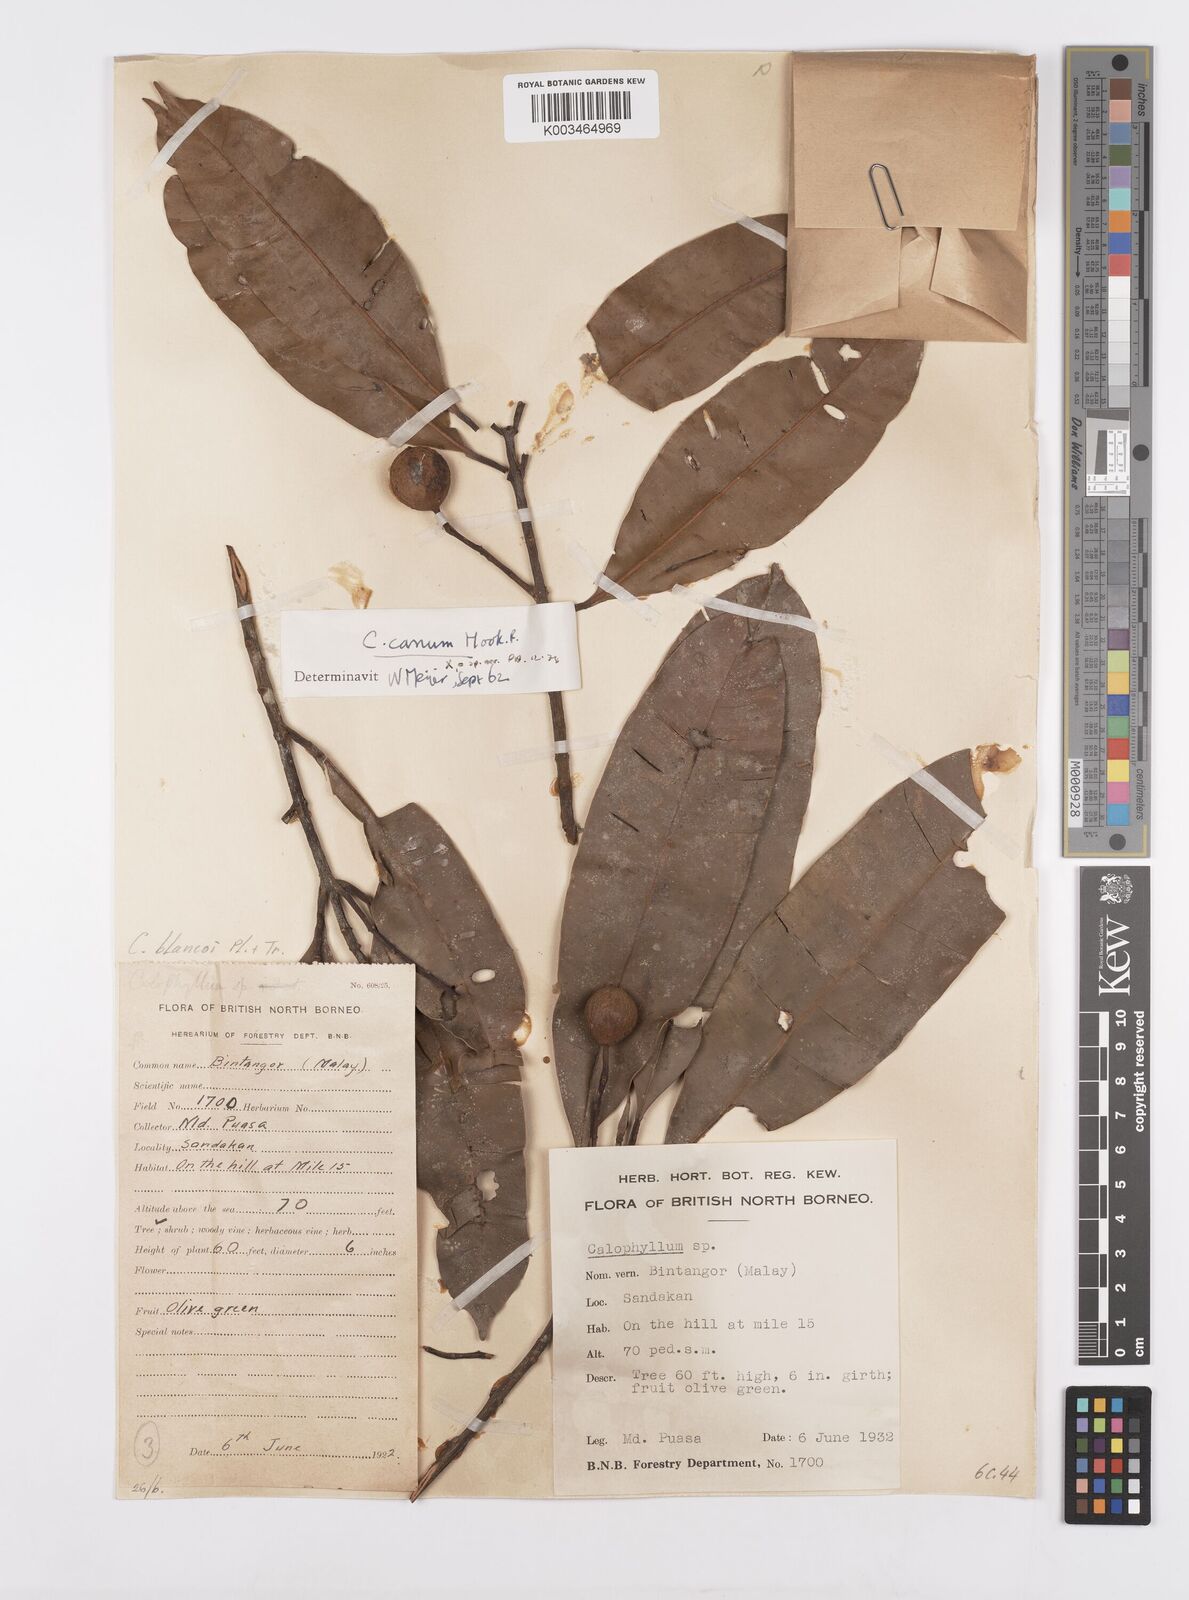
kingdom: Plantae
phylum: Tracheophyta
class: Magnoliopsida
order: Malpighiales
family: Calophyllaceae
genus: Calophyllum
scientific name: Calophyllum blancoi
